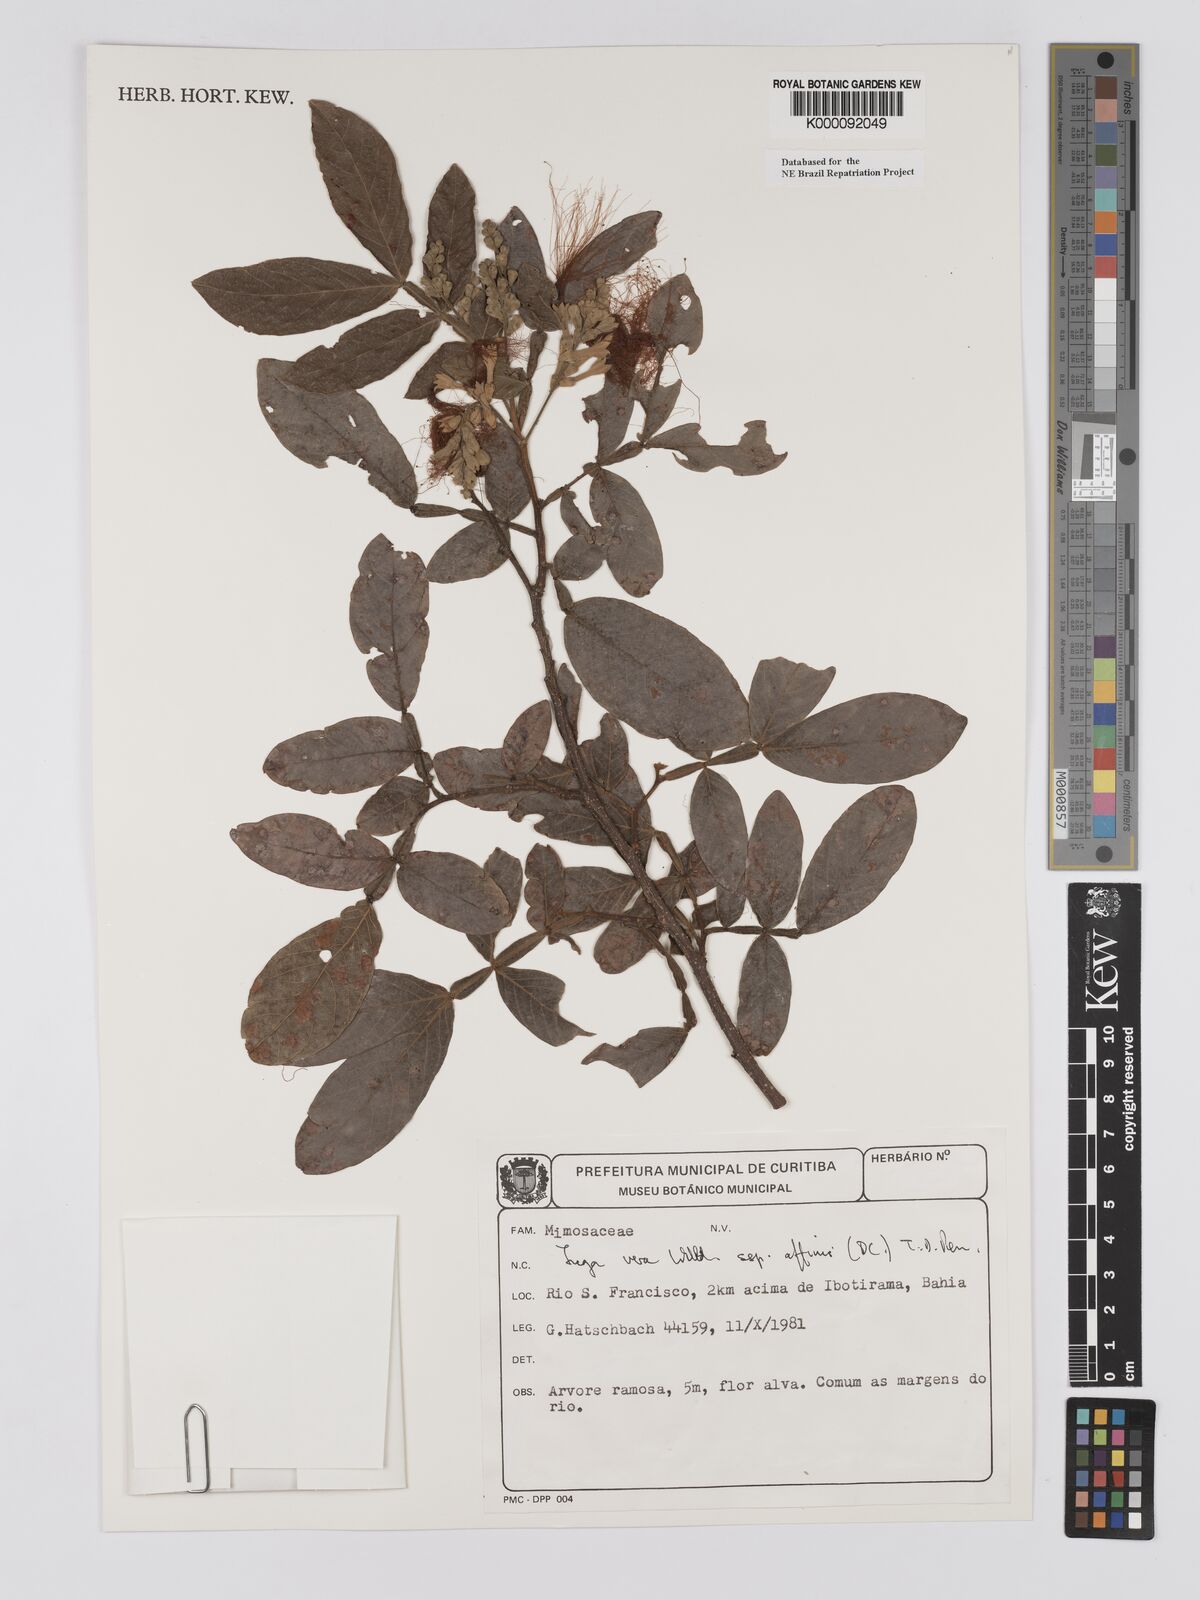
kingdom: Plantae
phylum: Tracheophyta
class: Magnoliopsida
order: Fabales
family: Fabaceae
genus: Inga
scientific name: Inga affinis
